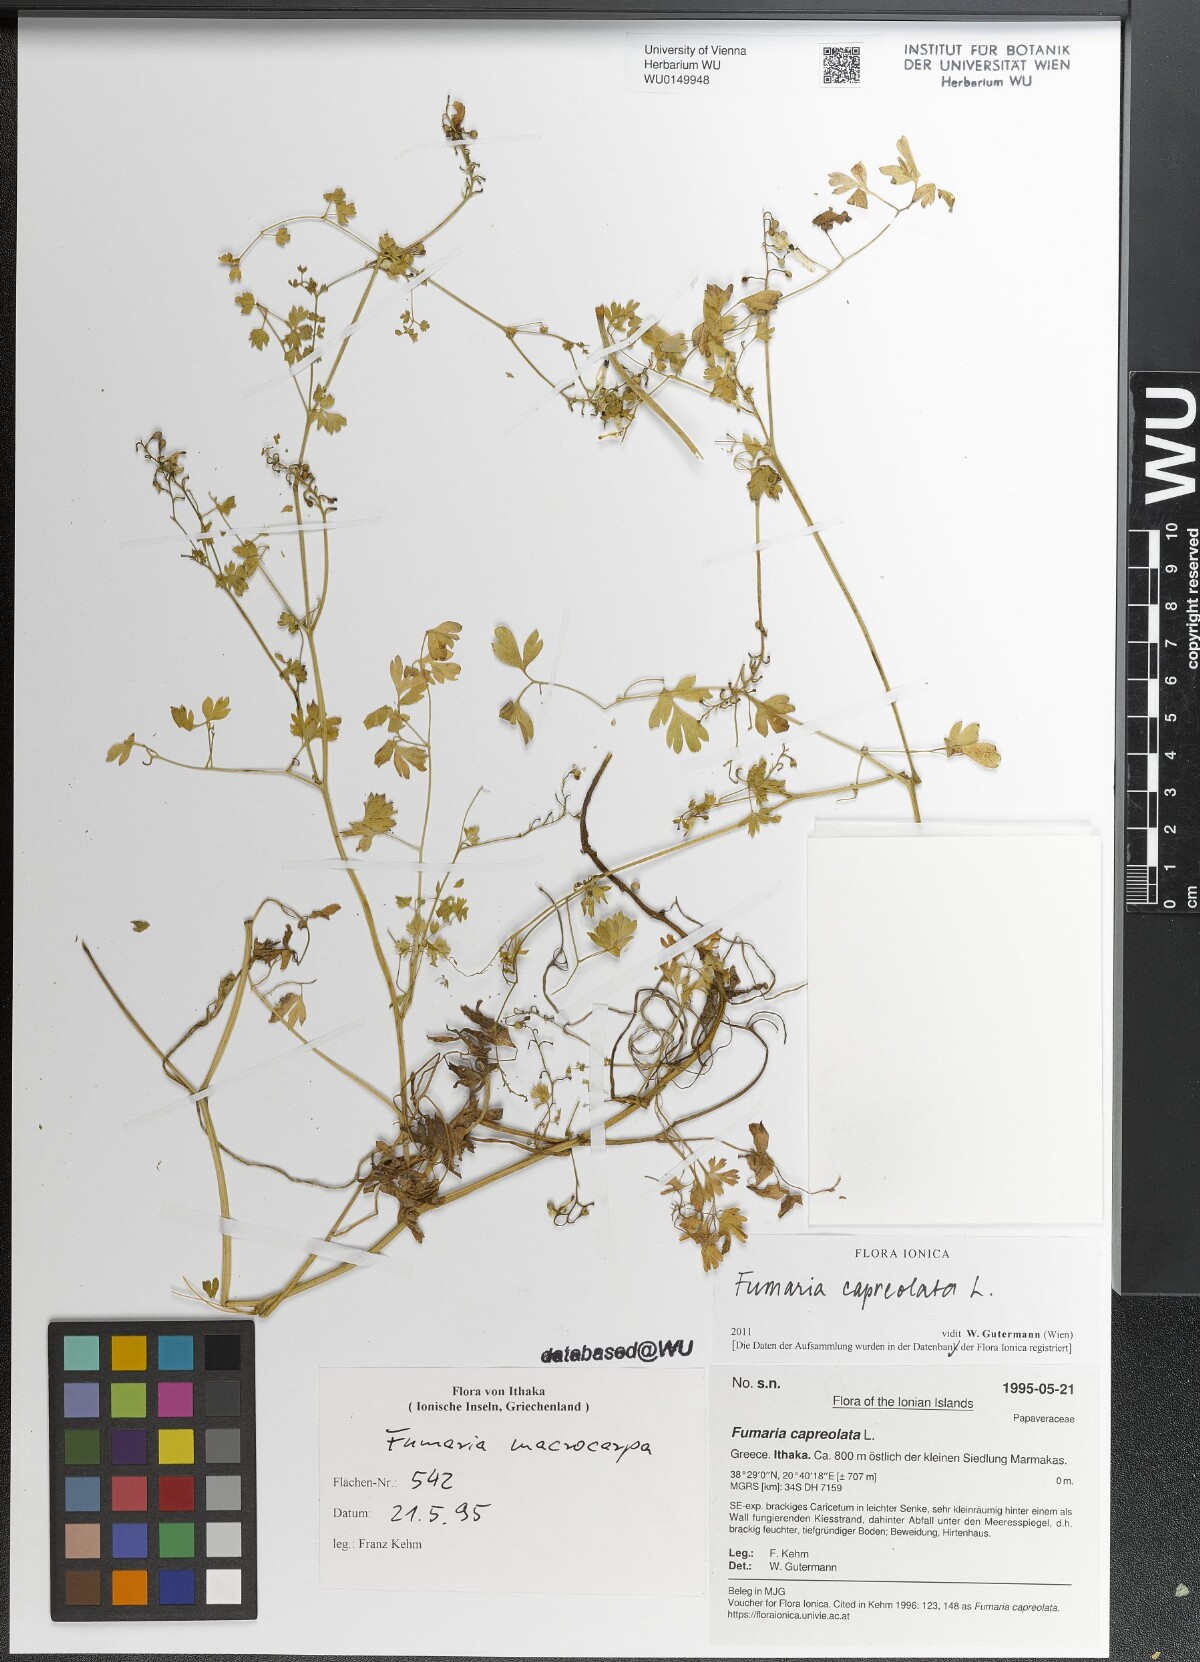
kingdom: Plantae
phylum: Tracheophyta
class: Magnoliopsida
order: Ranunculales
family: Papaveraceae
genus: Fumaria
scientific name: Fumaria capreolata
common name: White ramping-fumitory
